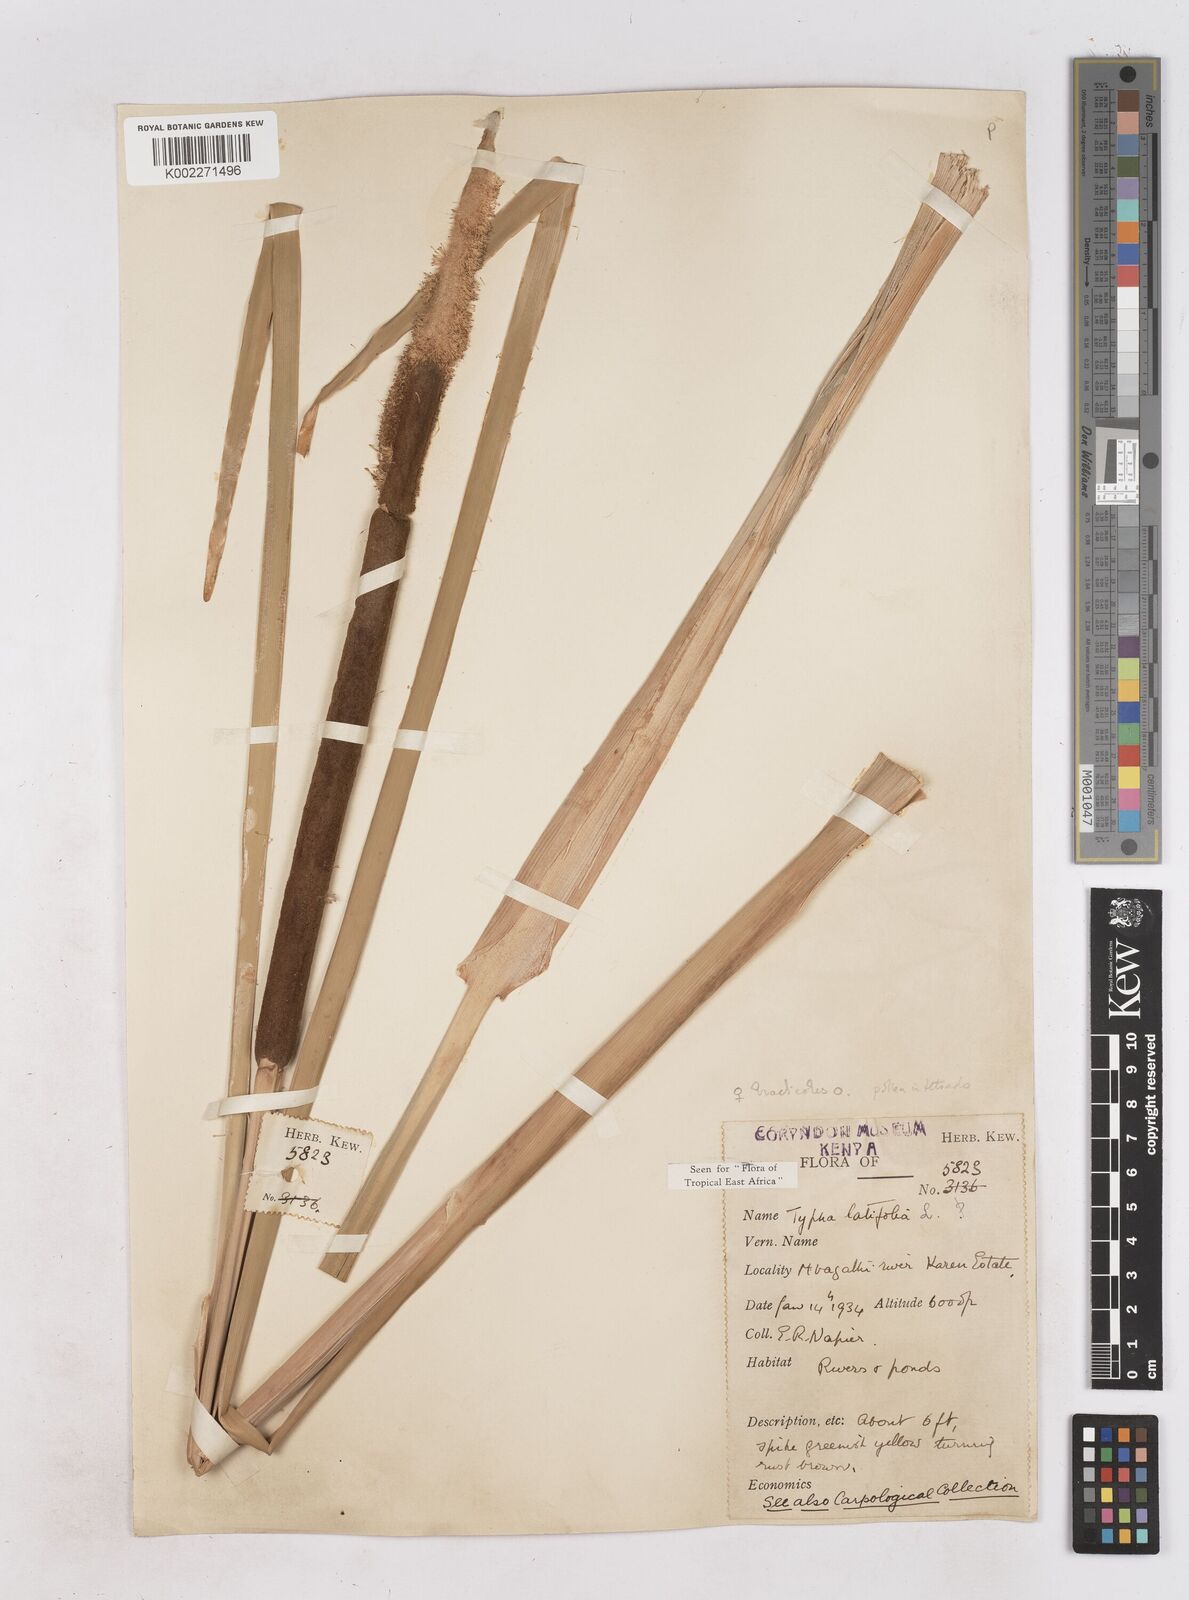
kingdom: Plantae
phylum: Tracheophyta
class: Liliopsida
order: Poales
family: Typhaceae
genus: Typha
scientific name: Typha latifolia
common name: Broadleaf cattail
